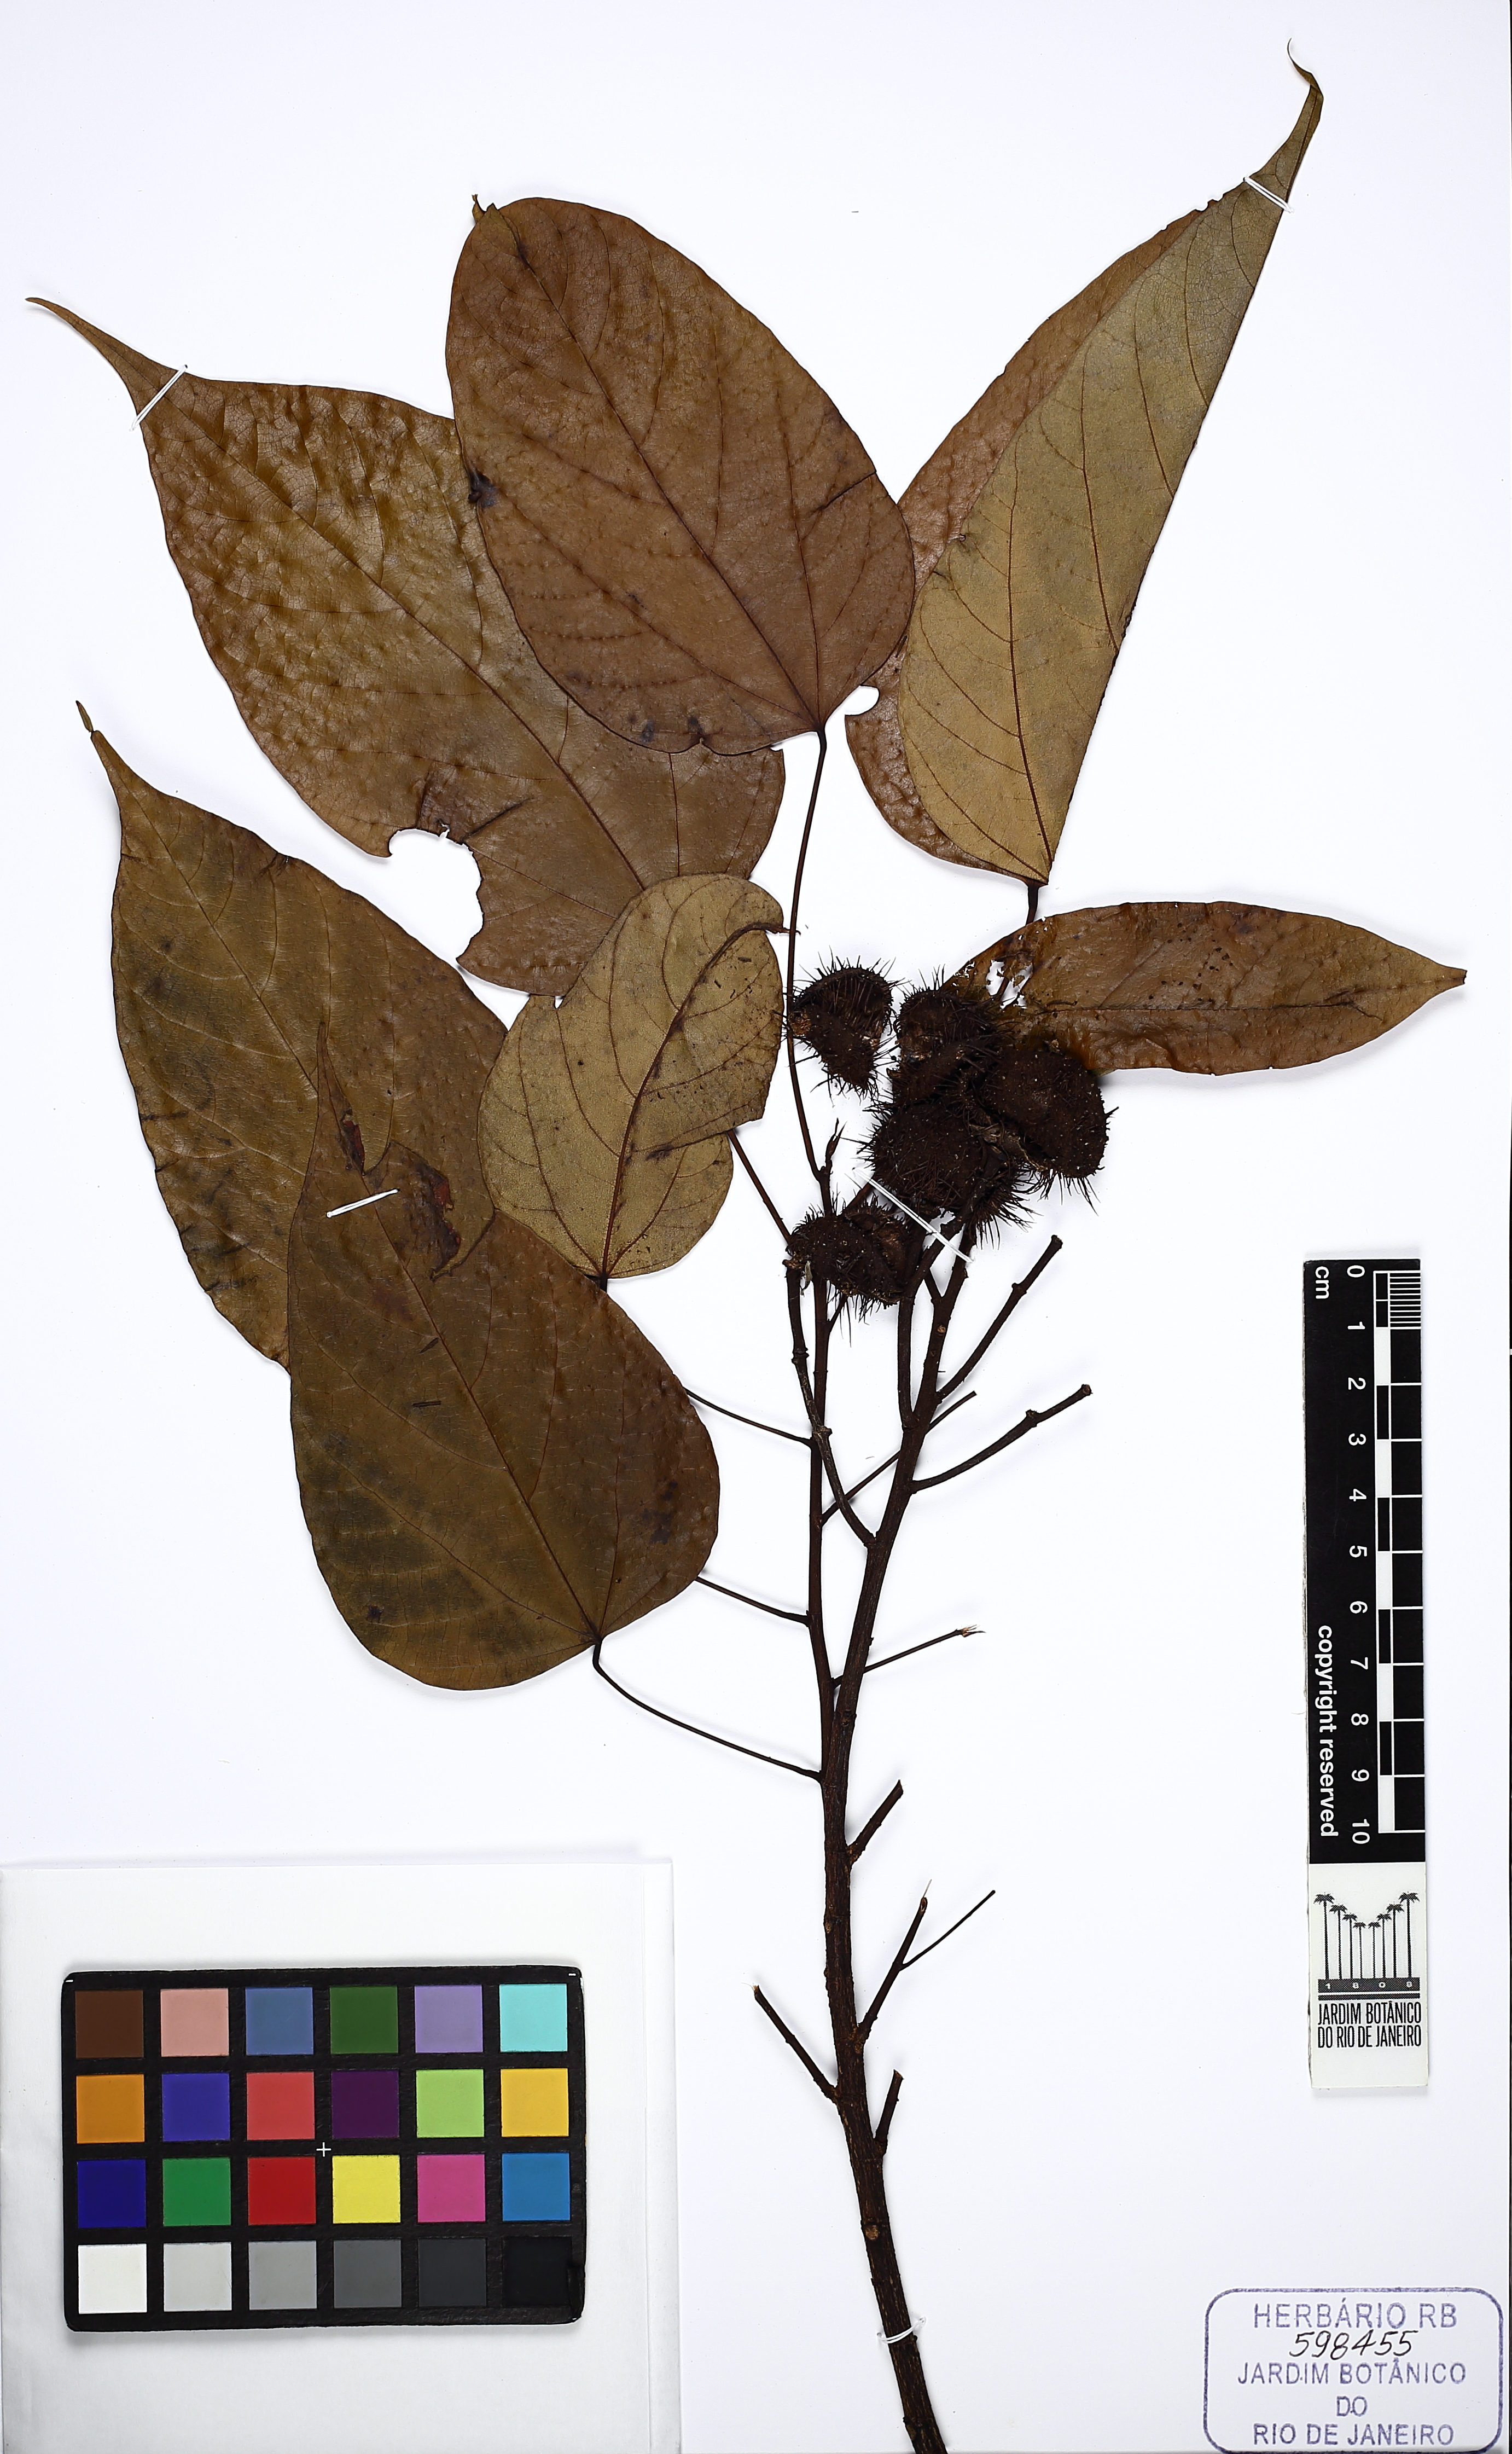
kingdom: Plantae
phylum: Tracheophyta
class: Magnoliopsida
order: Malvales
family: Bixaceae
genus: Bixa
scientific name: Bixa atlantica
